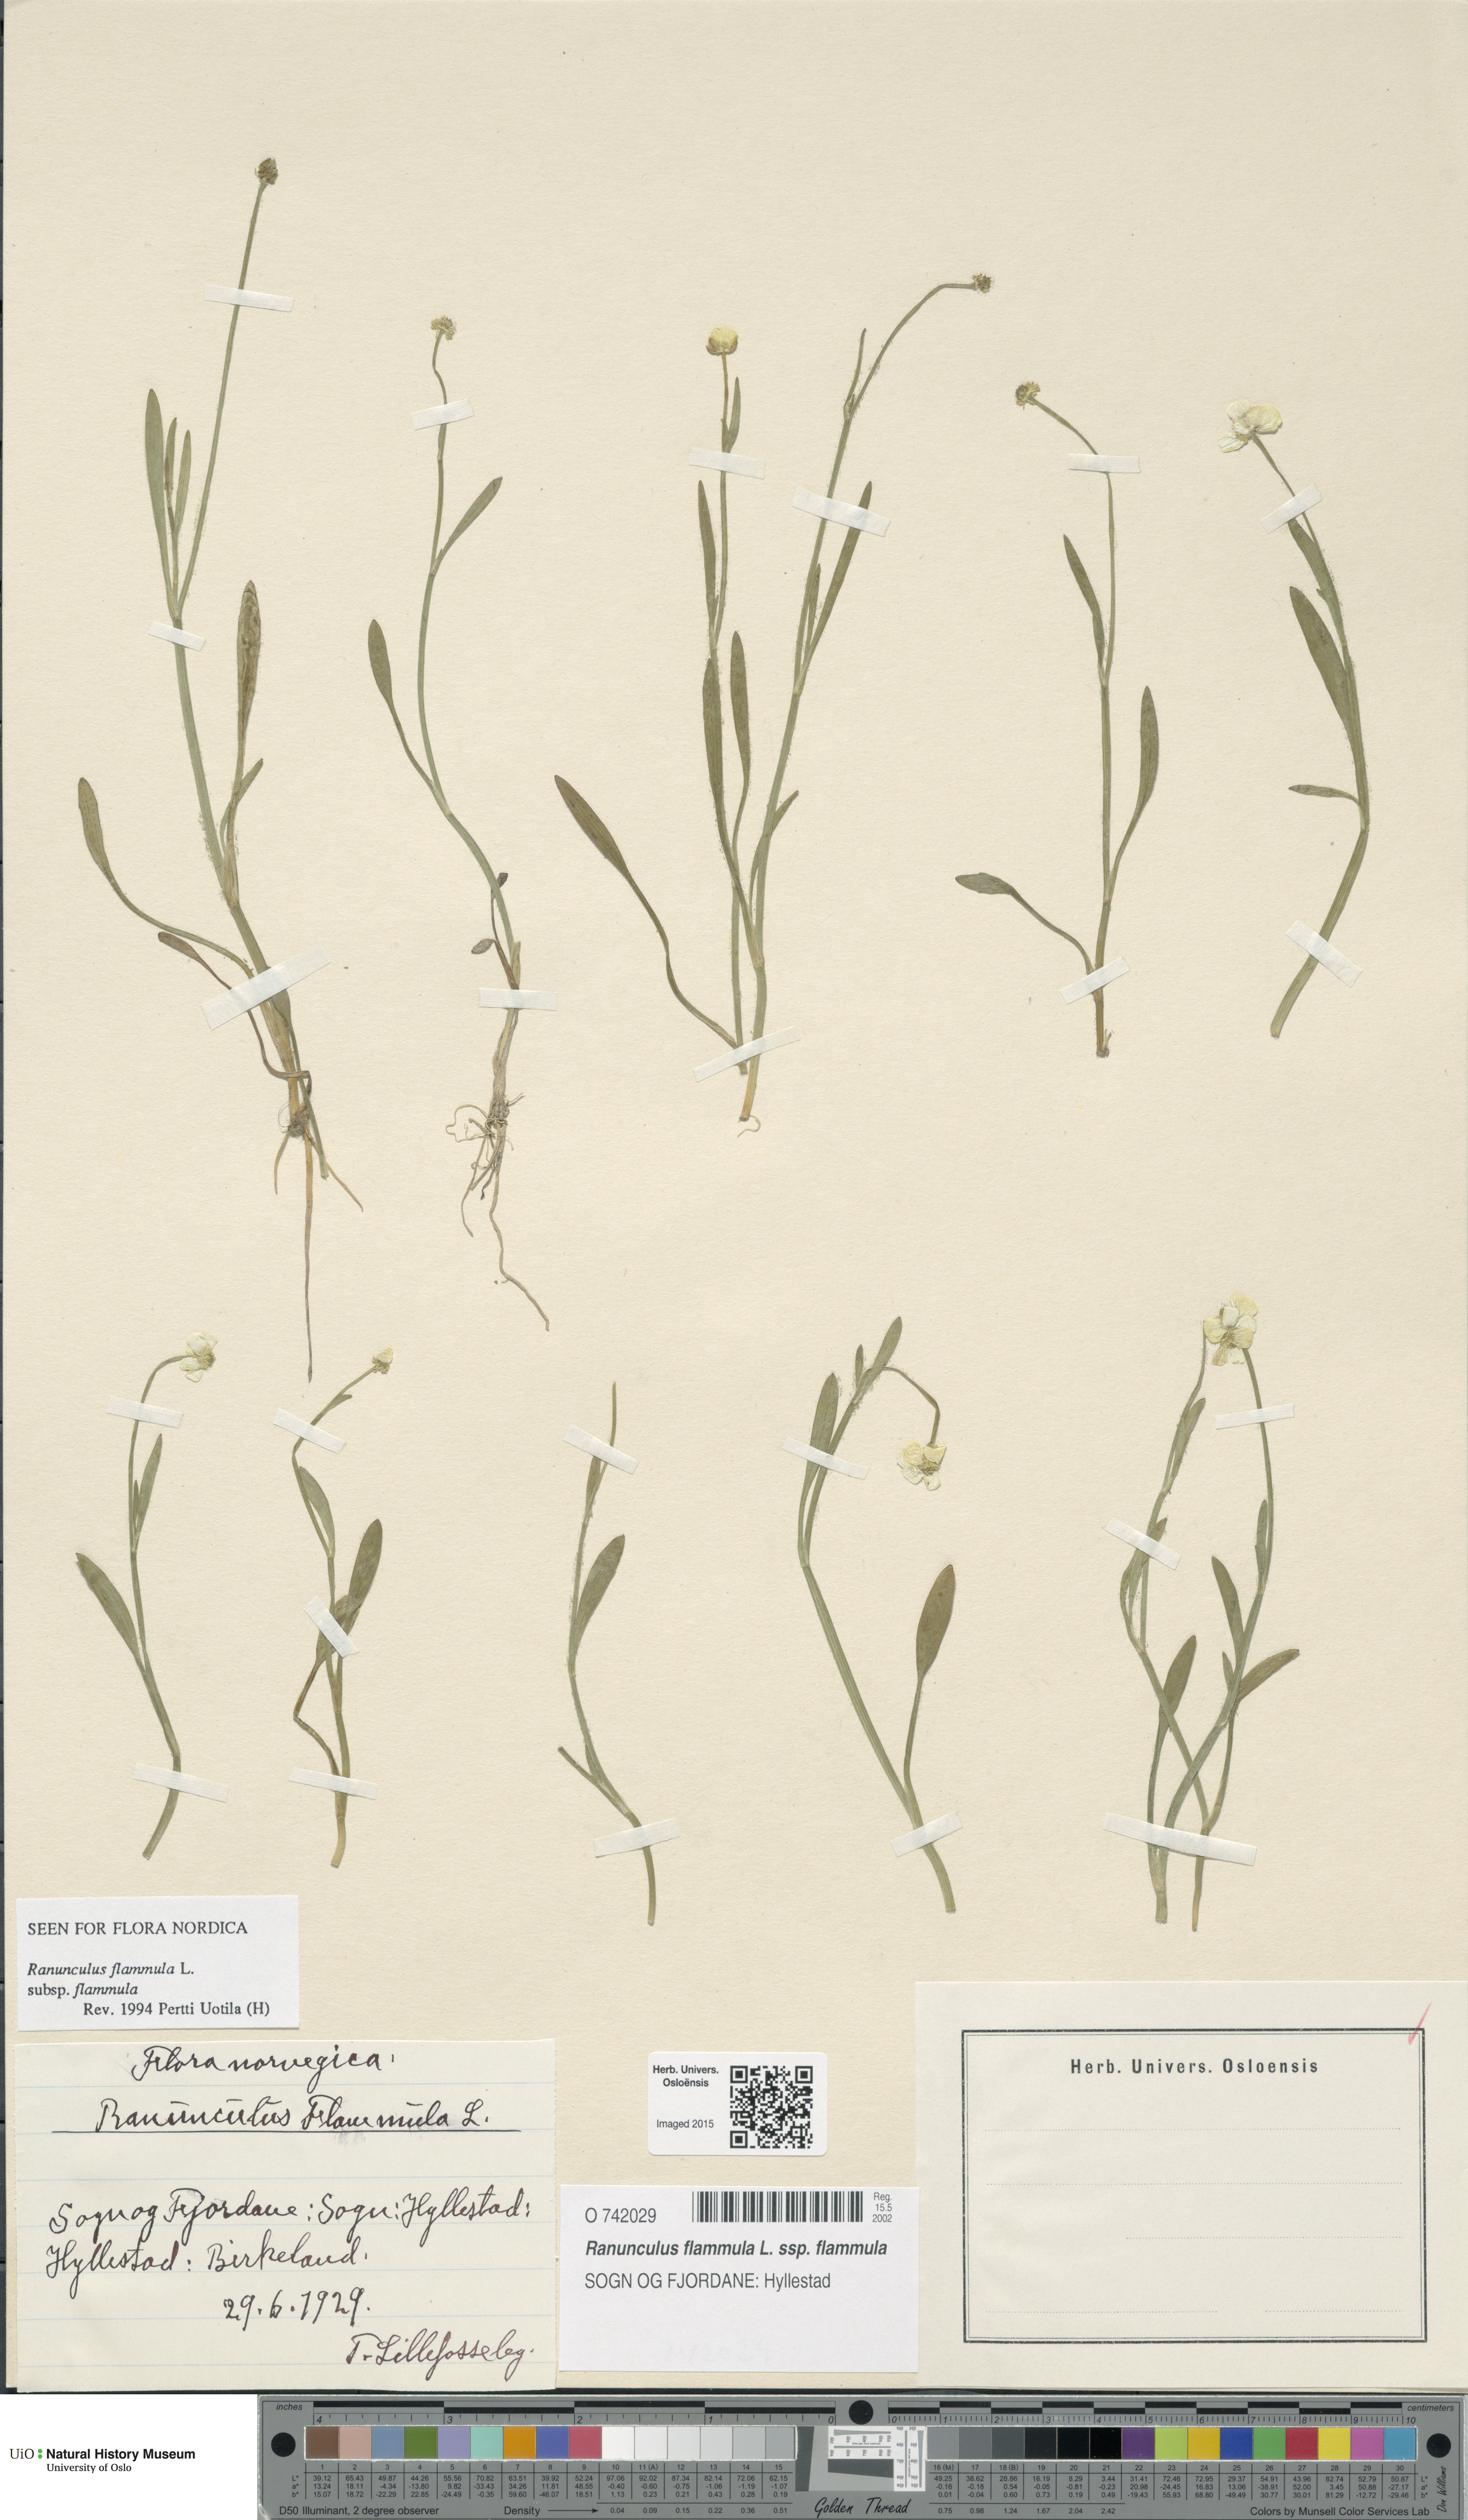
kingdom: Plantae
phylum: Tracheophyta
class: Magnoliopsida
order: Ranunculales
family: Ranunculaceae
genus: Ranunculus
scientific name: Ranunculus flammula
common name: Lesser spearwort
